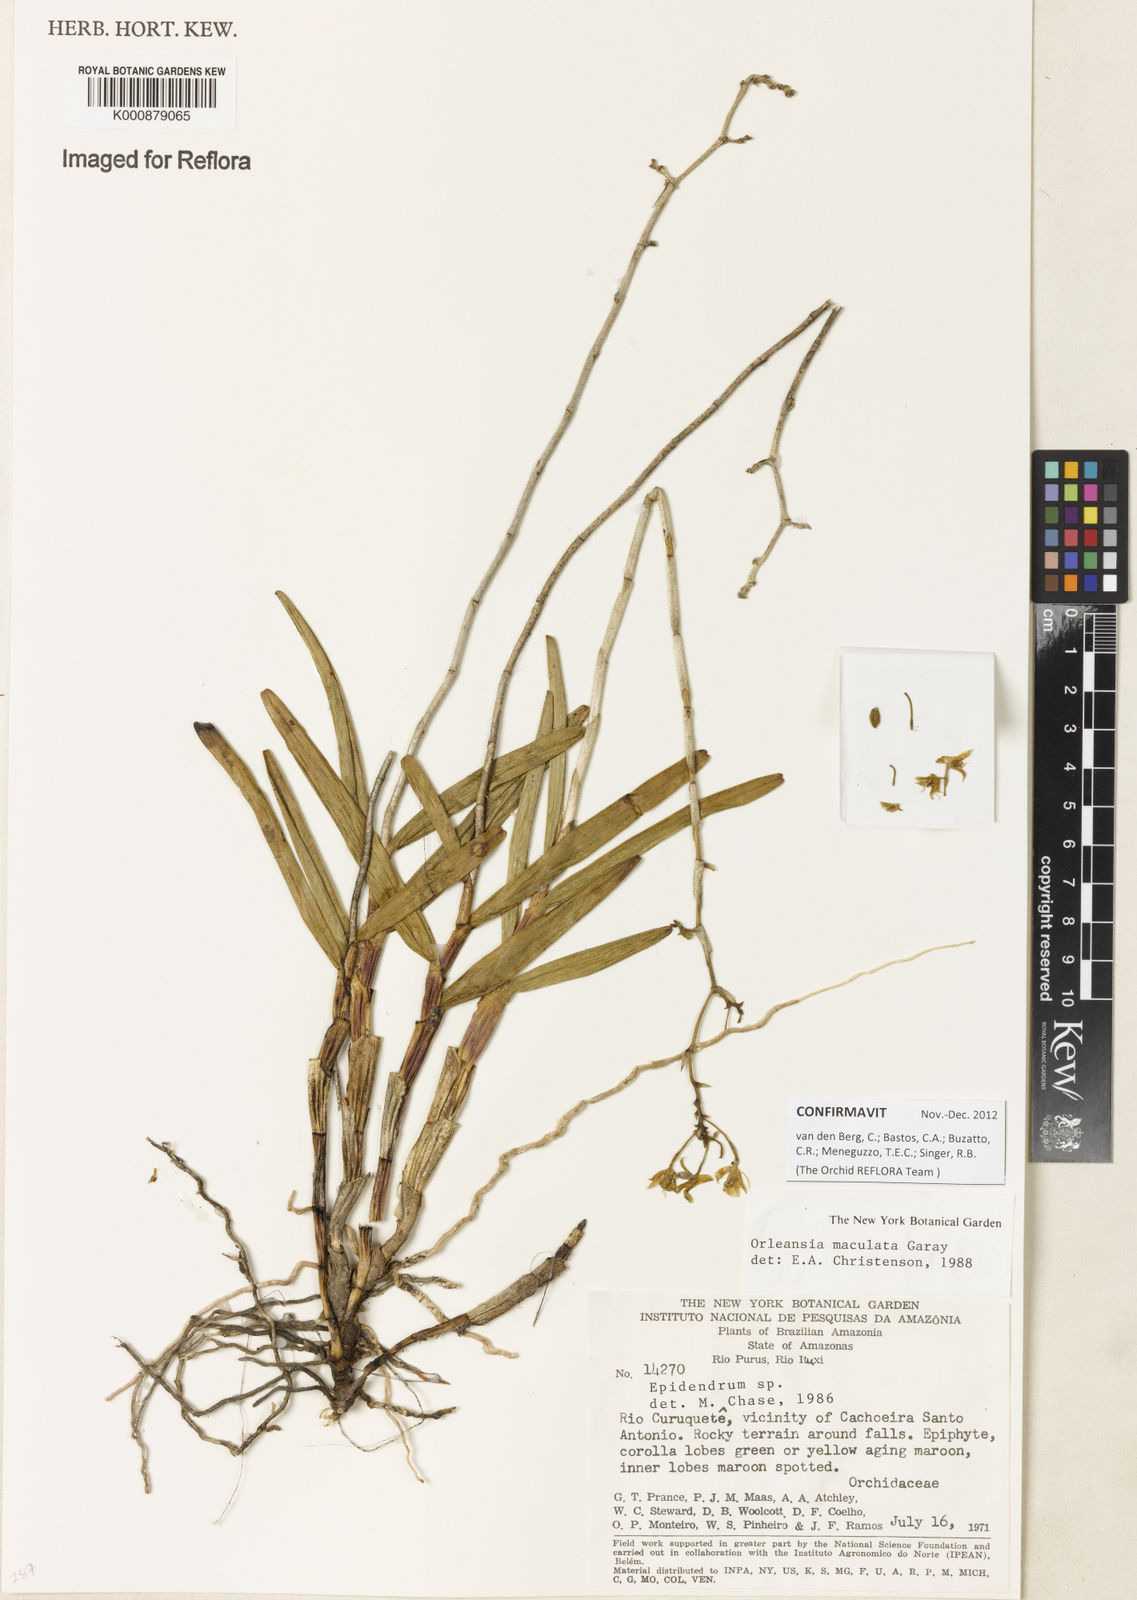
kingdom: Plantae
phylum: Tracheophyta
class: Liliopsida
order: Asparagales
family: Orchidaceae
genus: Orleanesia
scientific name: Orleanesia maculata
